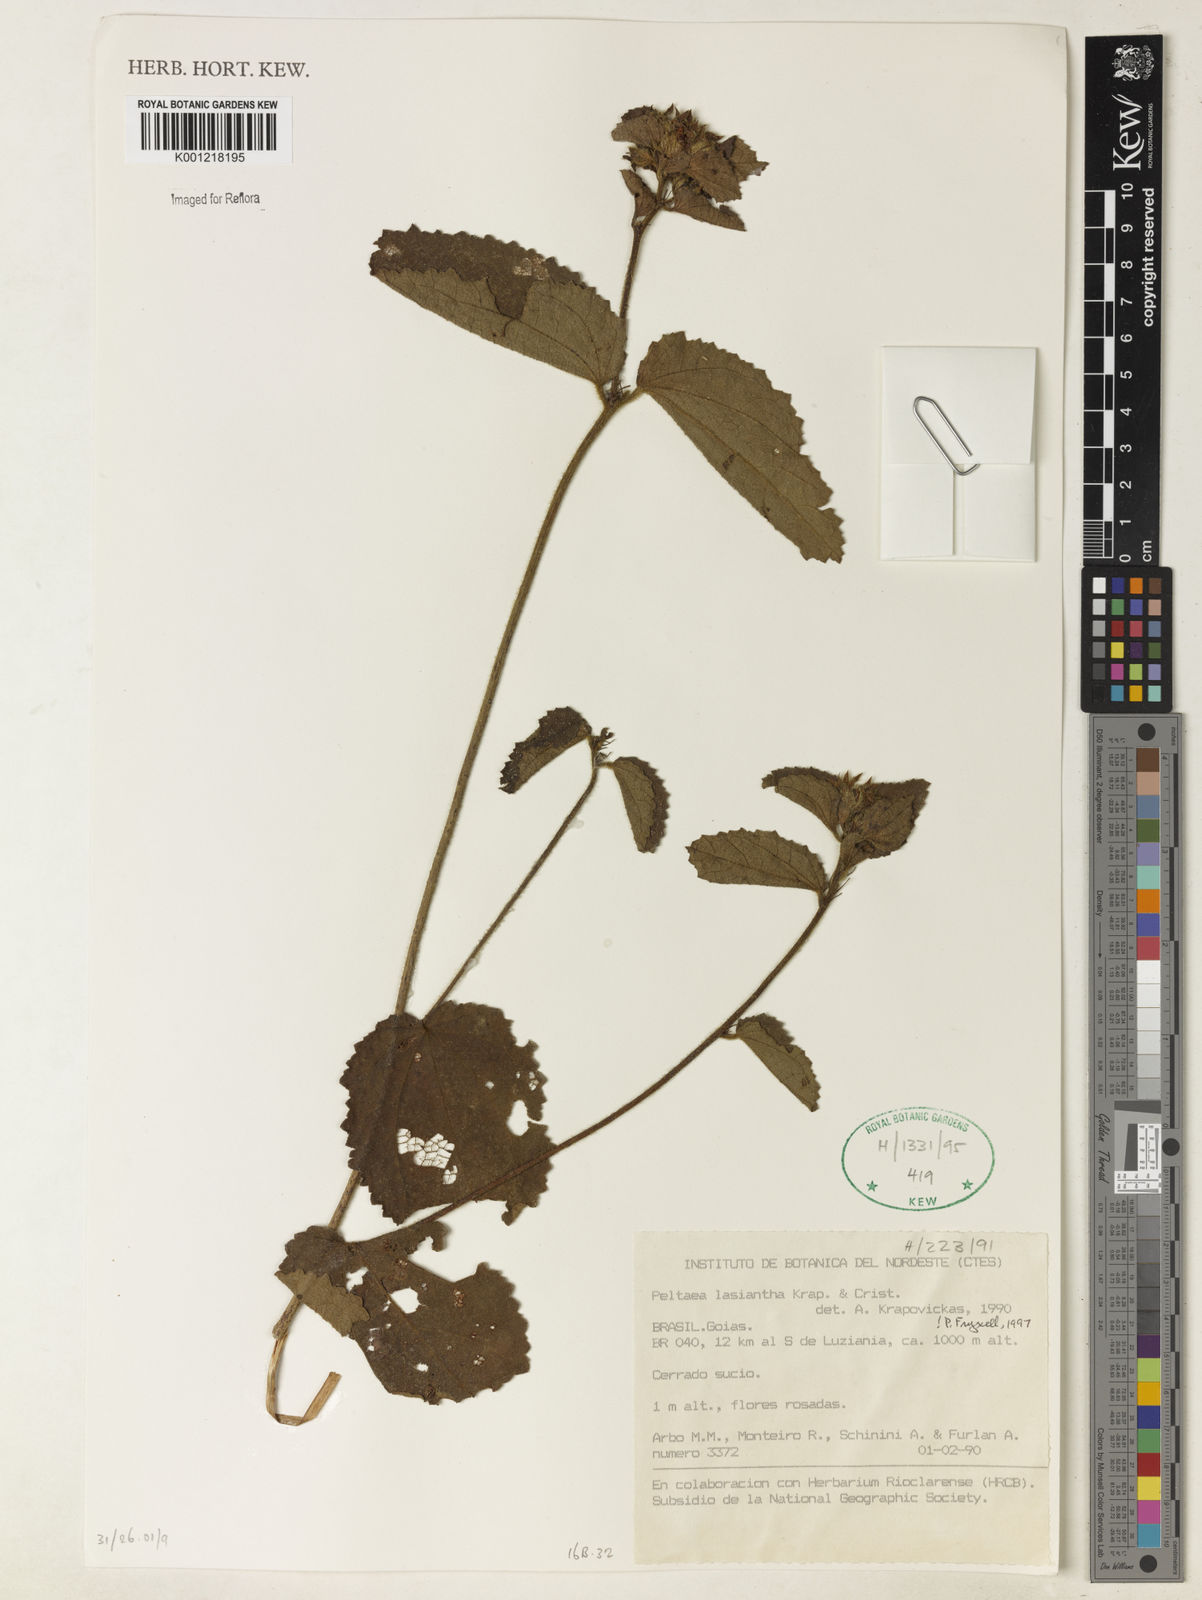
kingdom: Plantae
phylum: Tracheophyta
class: Magnoliopsida
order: Malvales
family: Malvaceae
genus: Peltaea
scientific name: Peltaea
